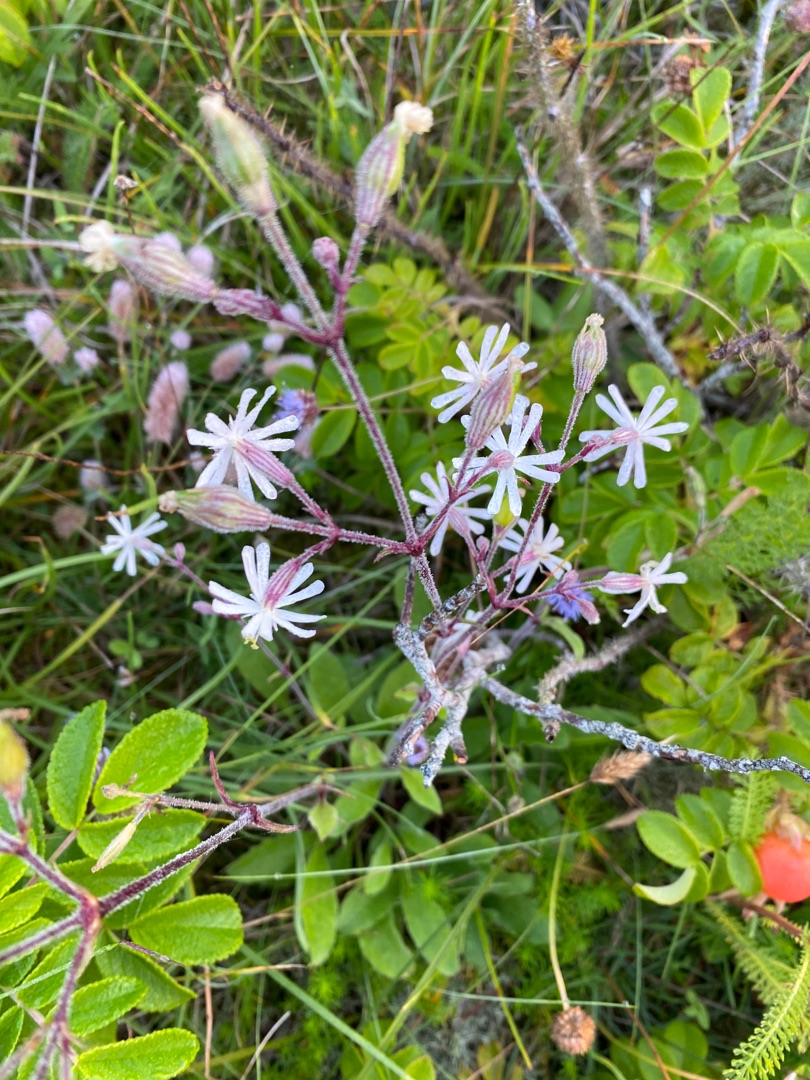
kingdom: Plantae
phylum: Tracheophyta
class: Magnoliopsida
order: Caryophyllales
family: Caryophyllaceae
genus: Silene
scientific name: Silene nutans
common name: Nikkende limurt
